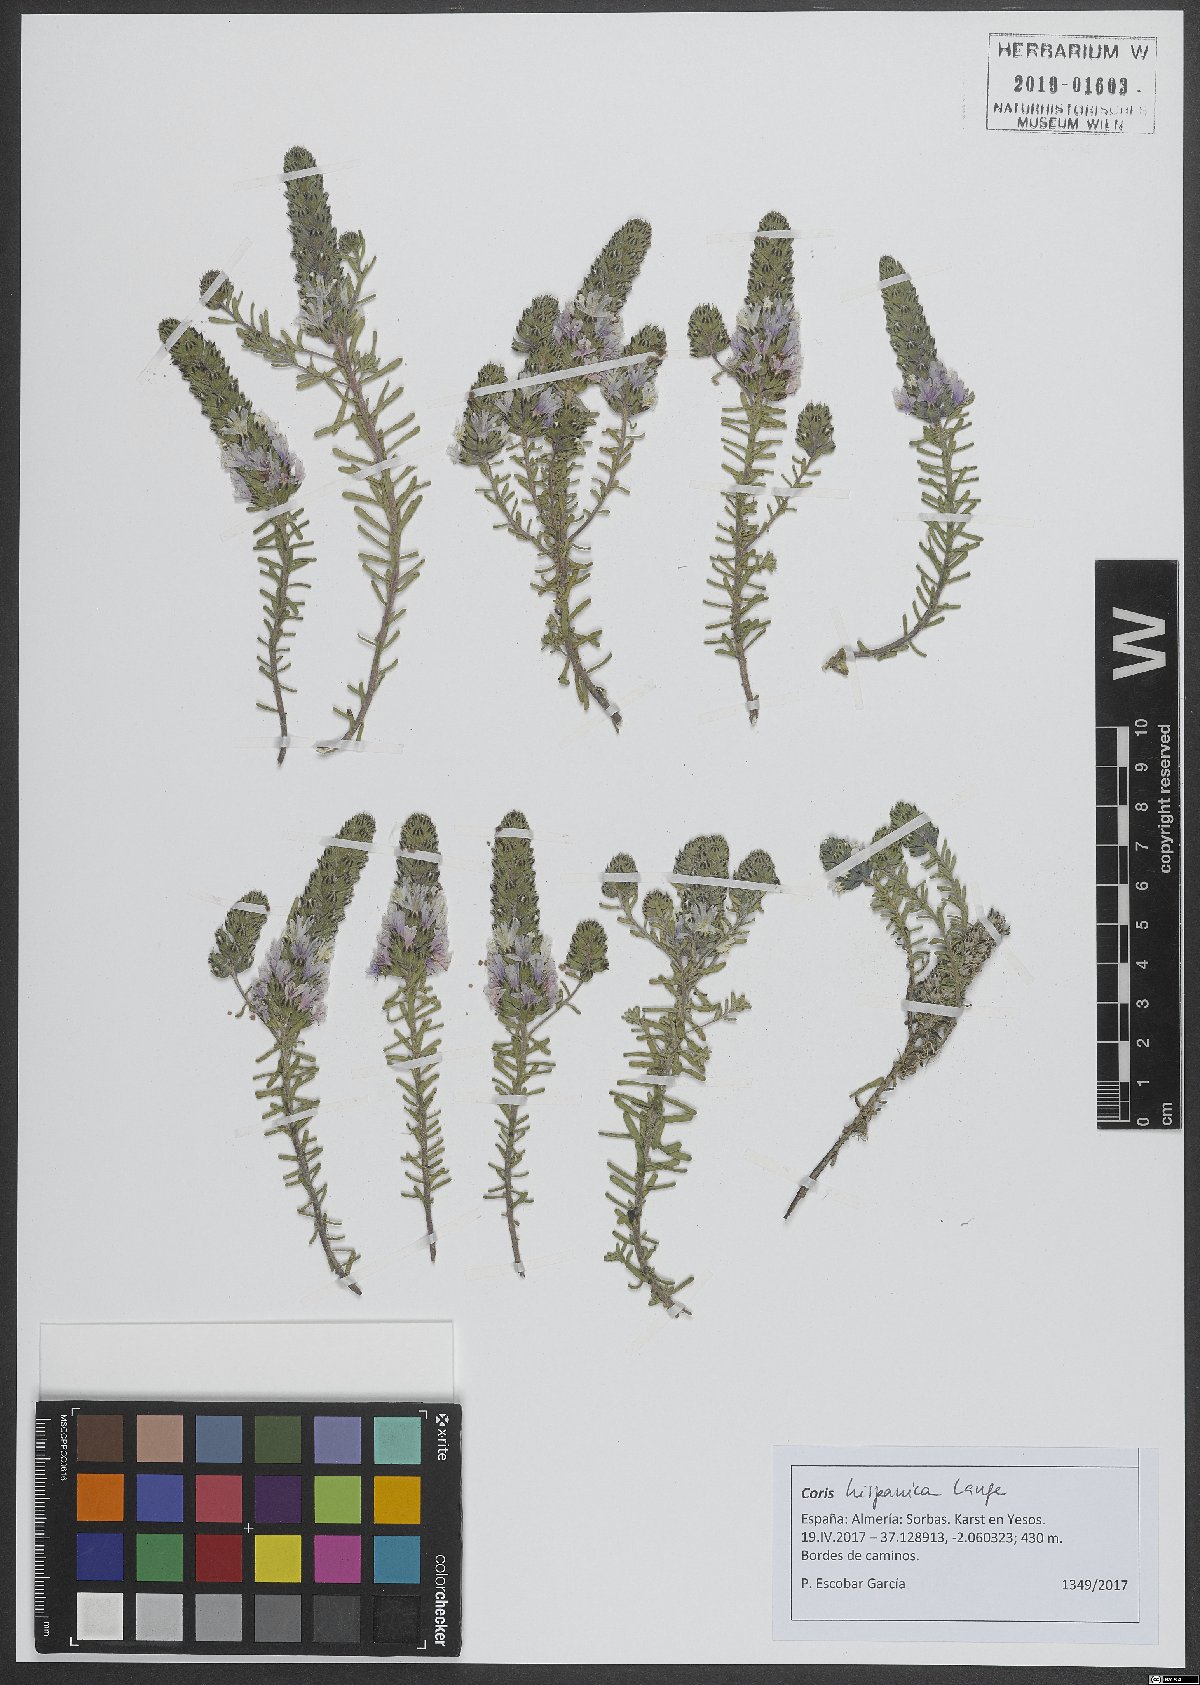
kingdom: Plantae
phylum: Tracheophyta
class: Magnoliopsida
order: Ericales
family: Primulaceae
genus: Coris
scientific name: Coris monspeliensis
